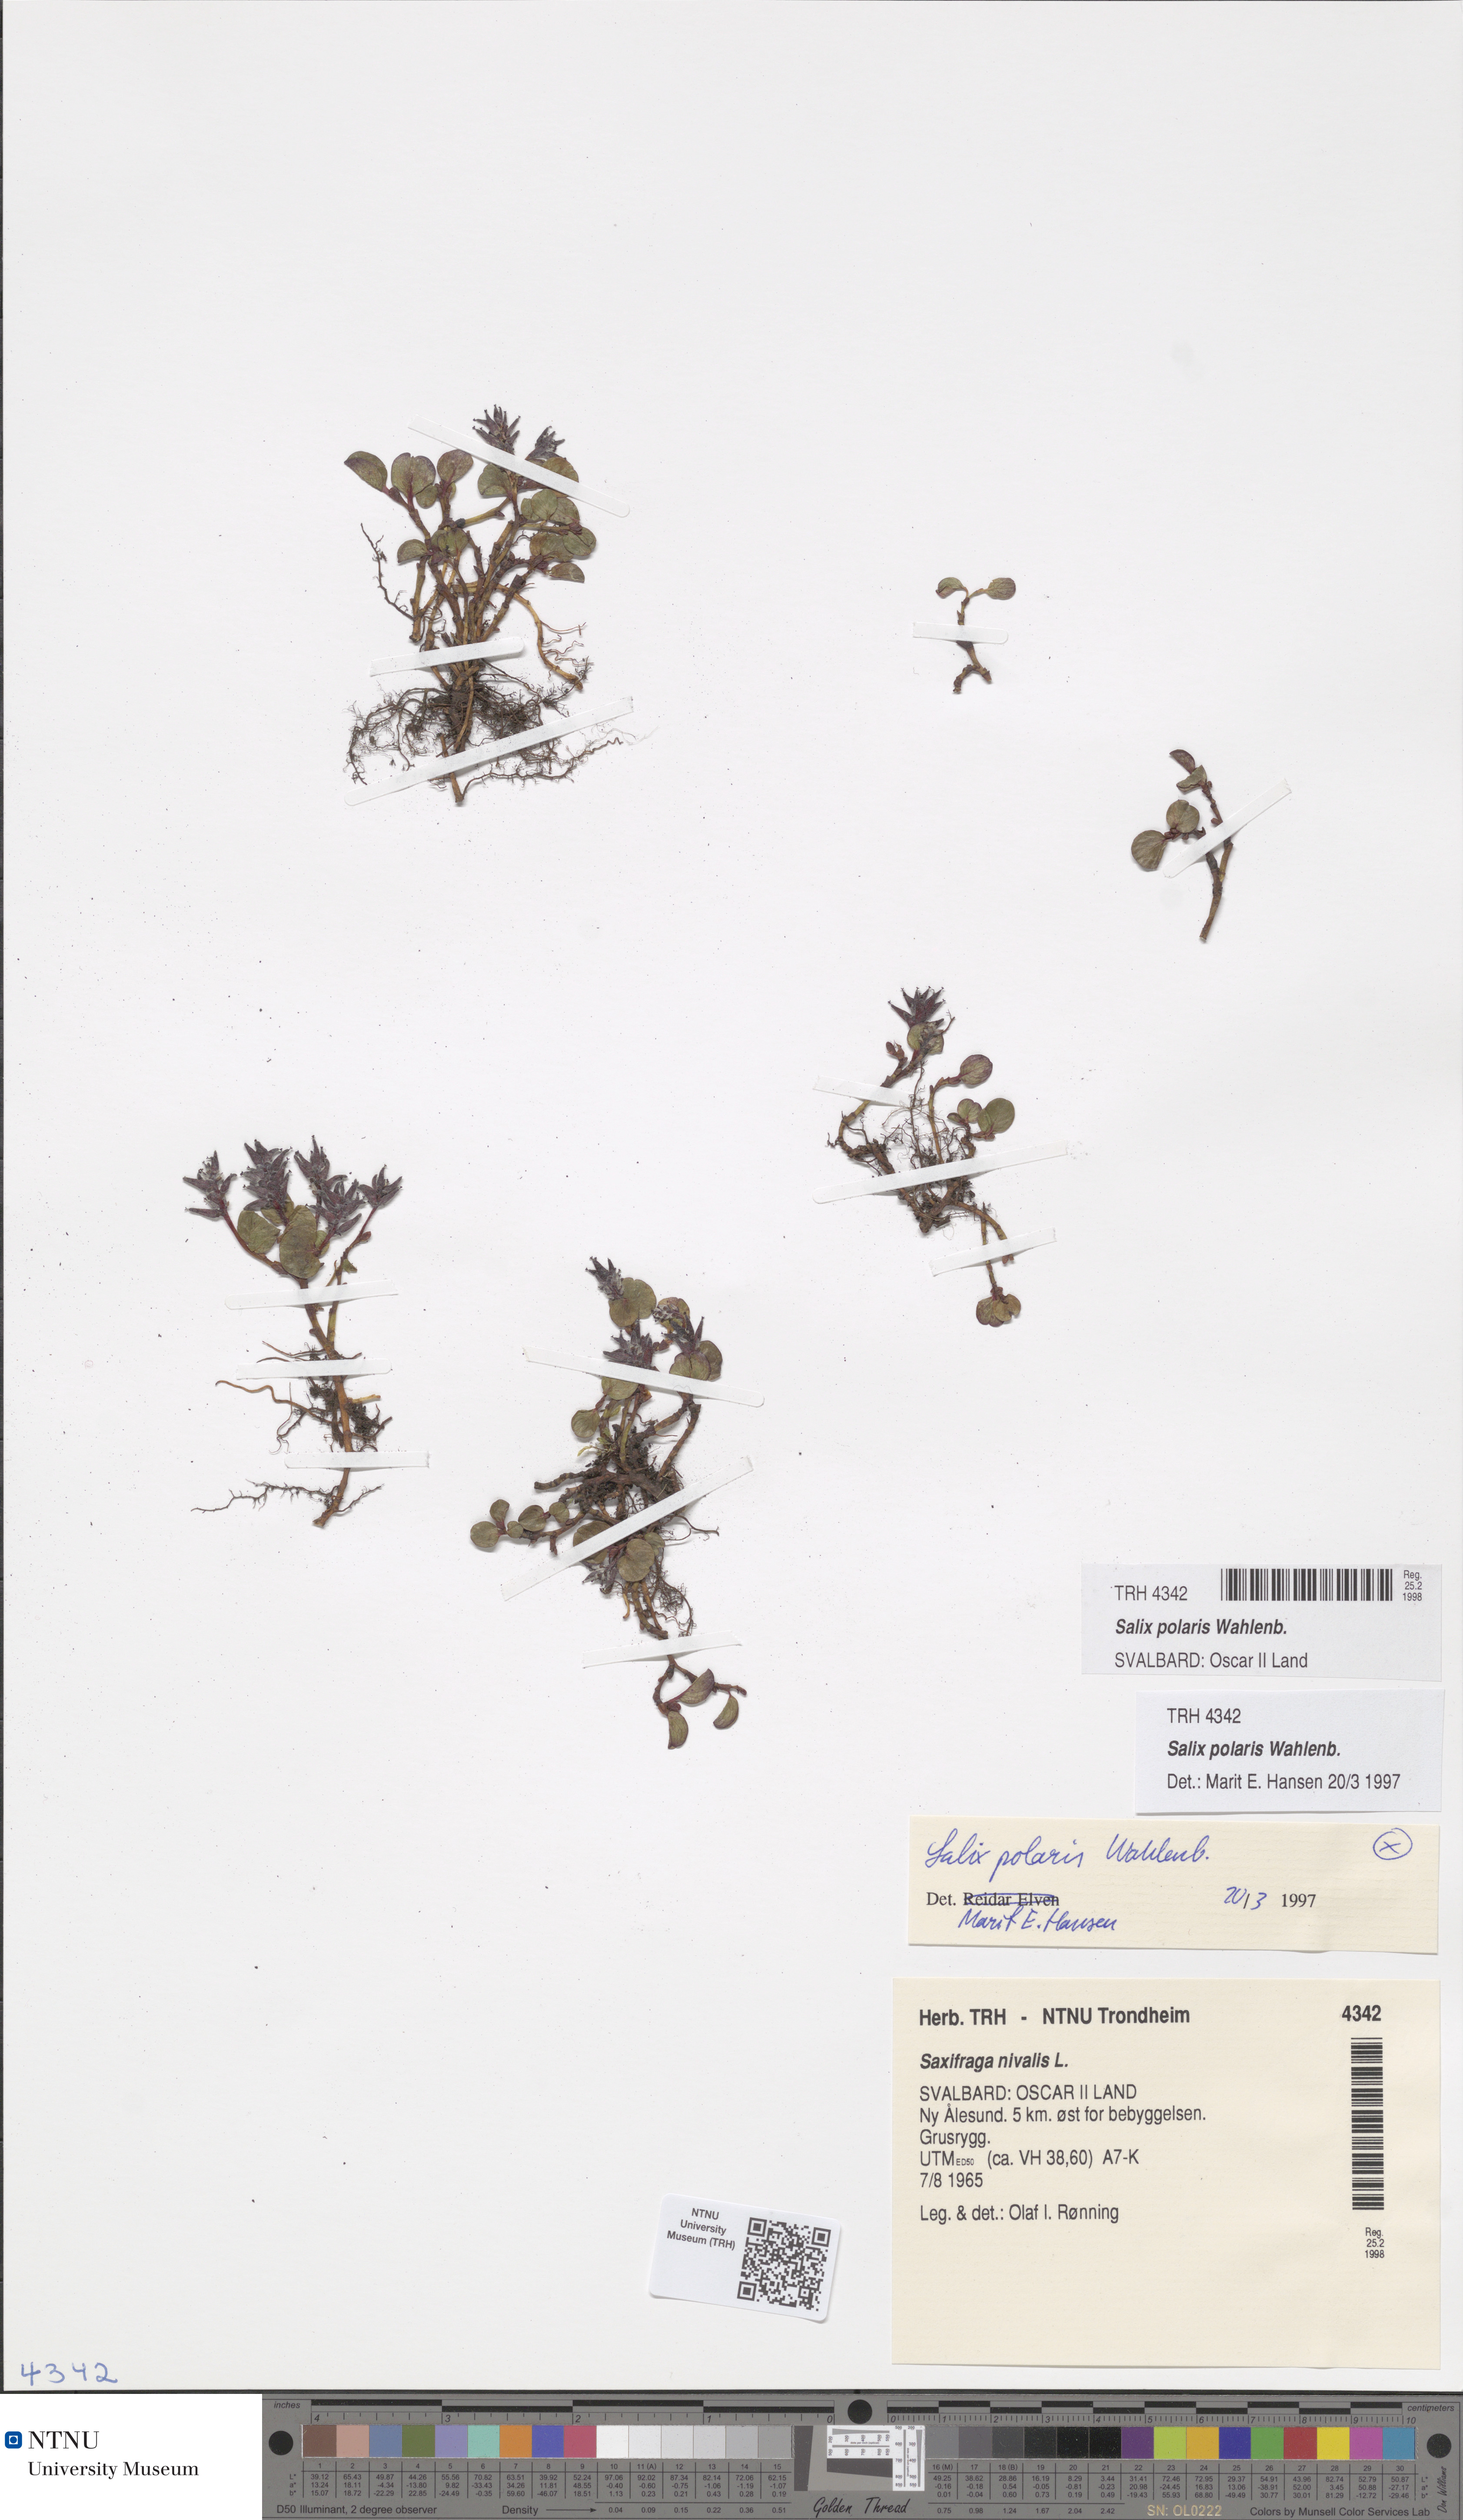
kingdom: Plantae
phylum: Tracheophyta
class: Magnoliopsida
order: Malpighiales
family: Salicaceae
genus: Salix
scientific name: Salix polaris
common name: Polar willow
